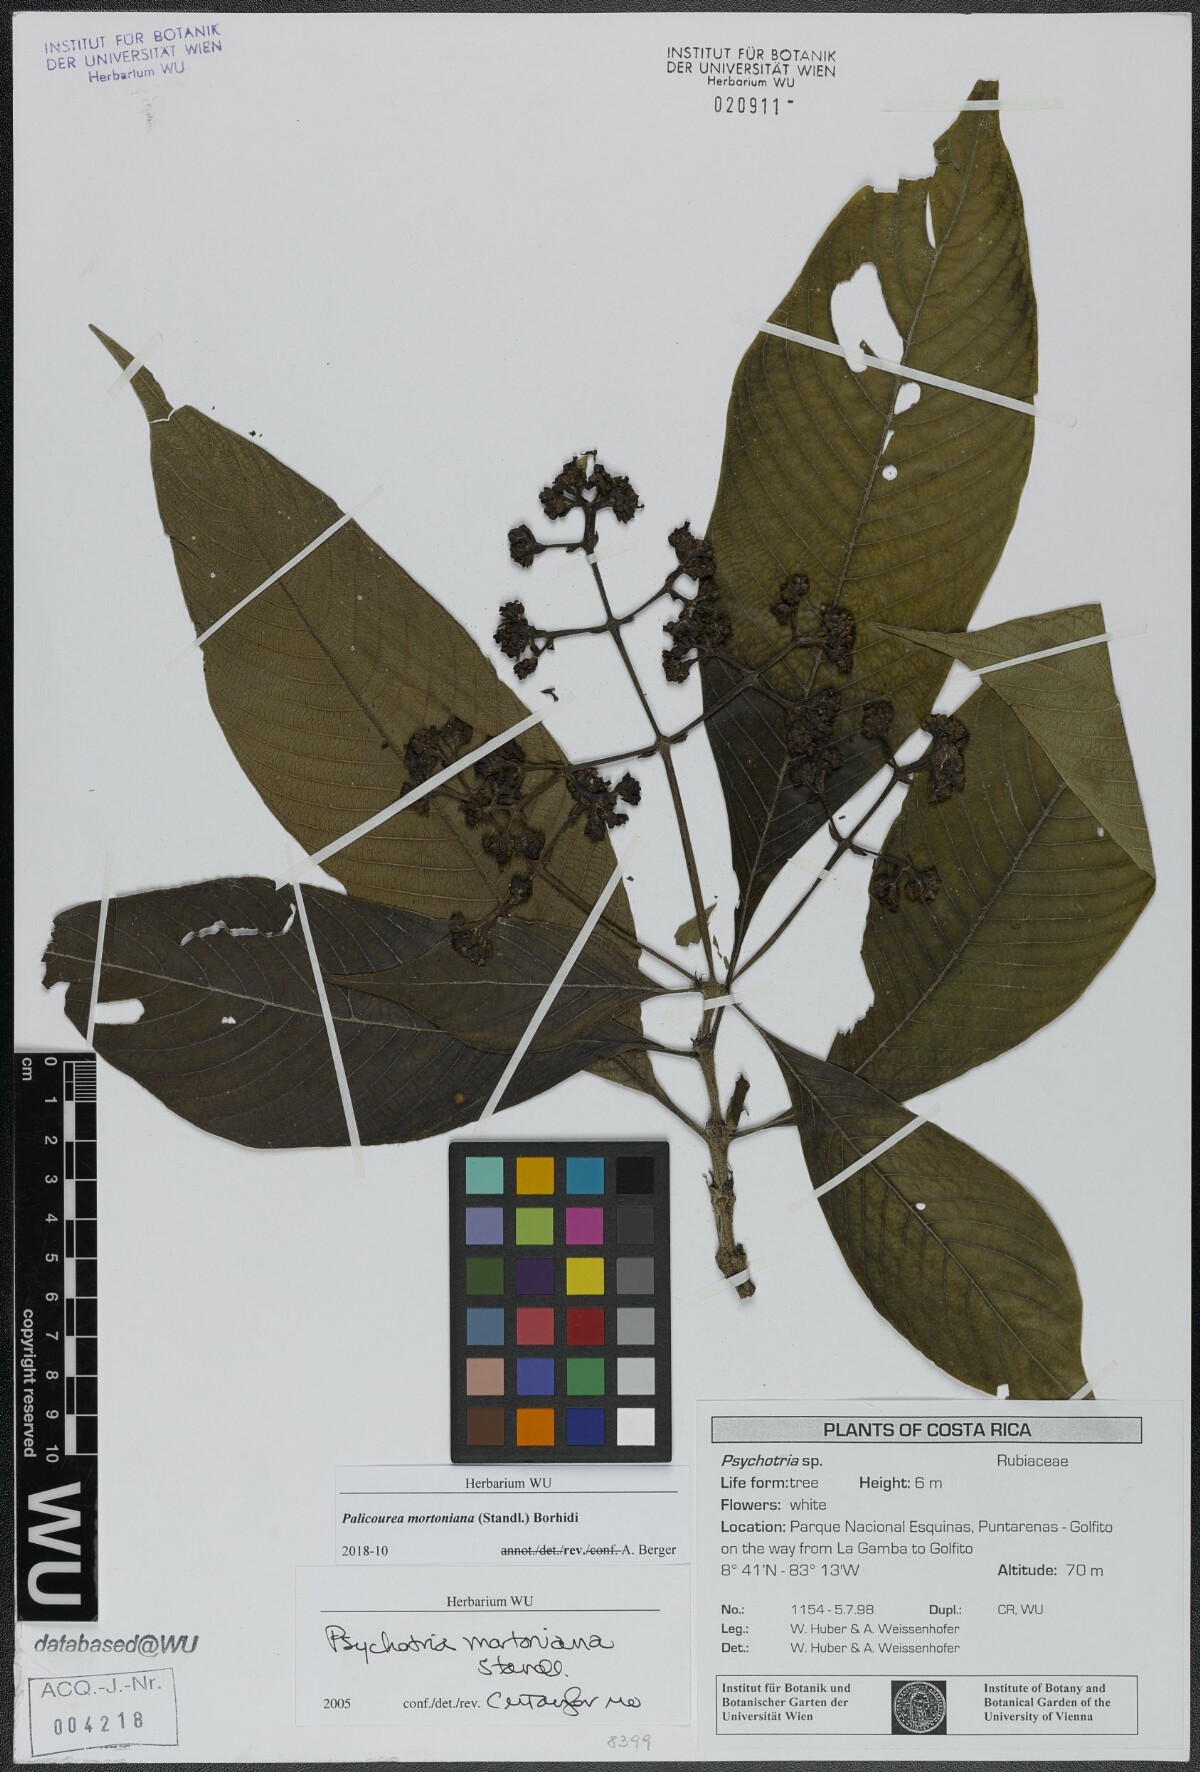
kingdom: Plantae
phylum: Tracheophyta
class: Magnoliopsida
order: Gentianales
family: Rubiaceae
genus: Palicourea
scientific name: Palicourea mortoniana
